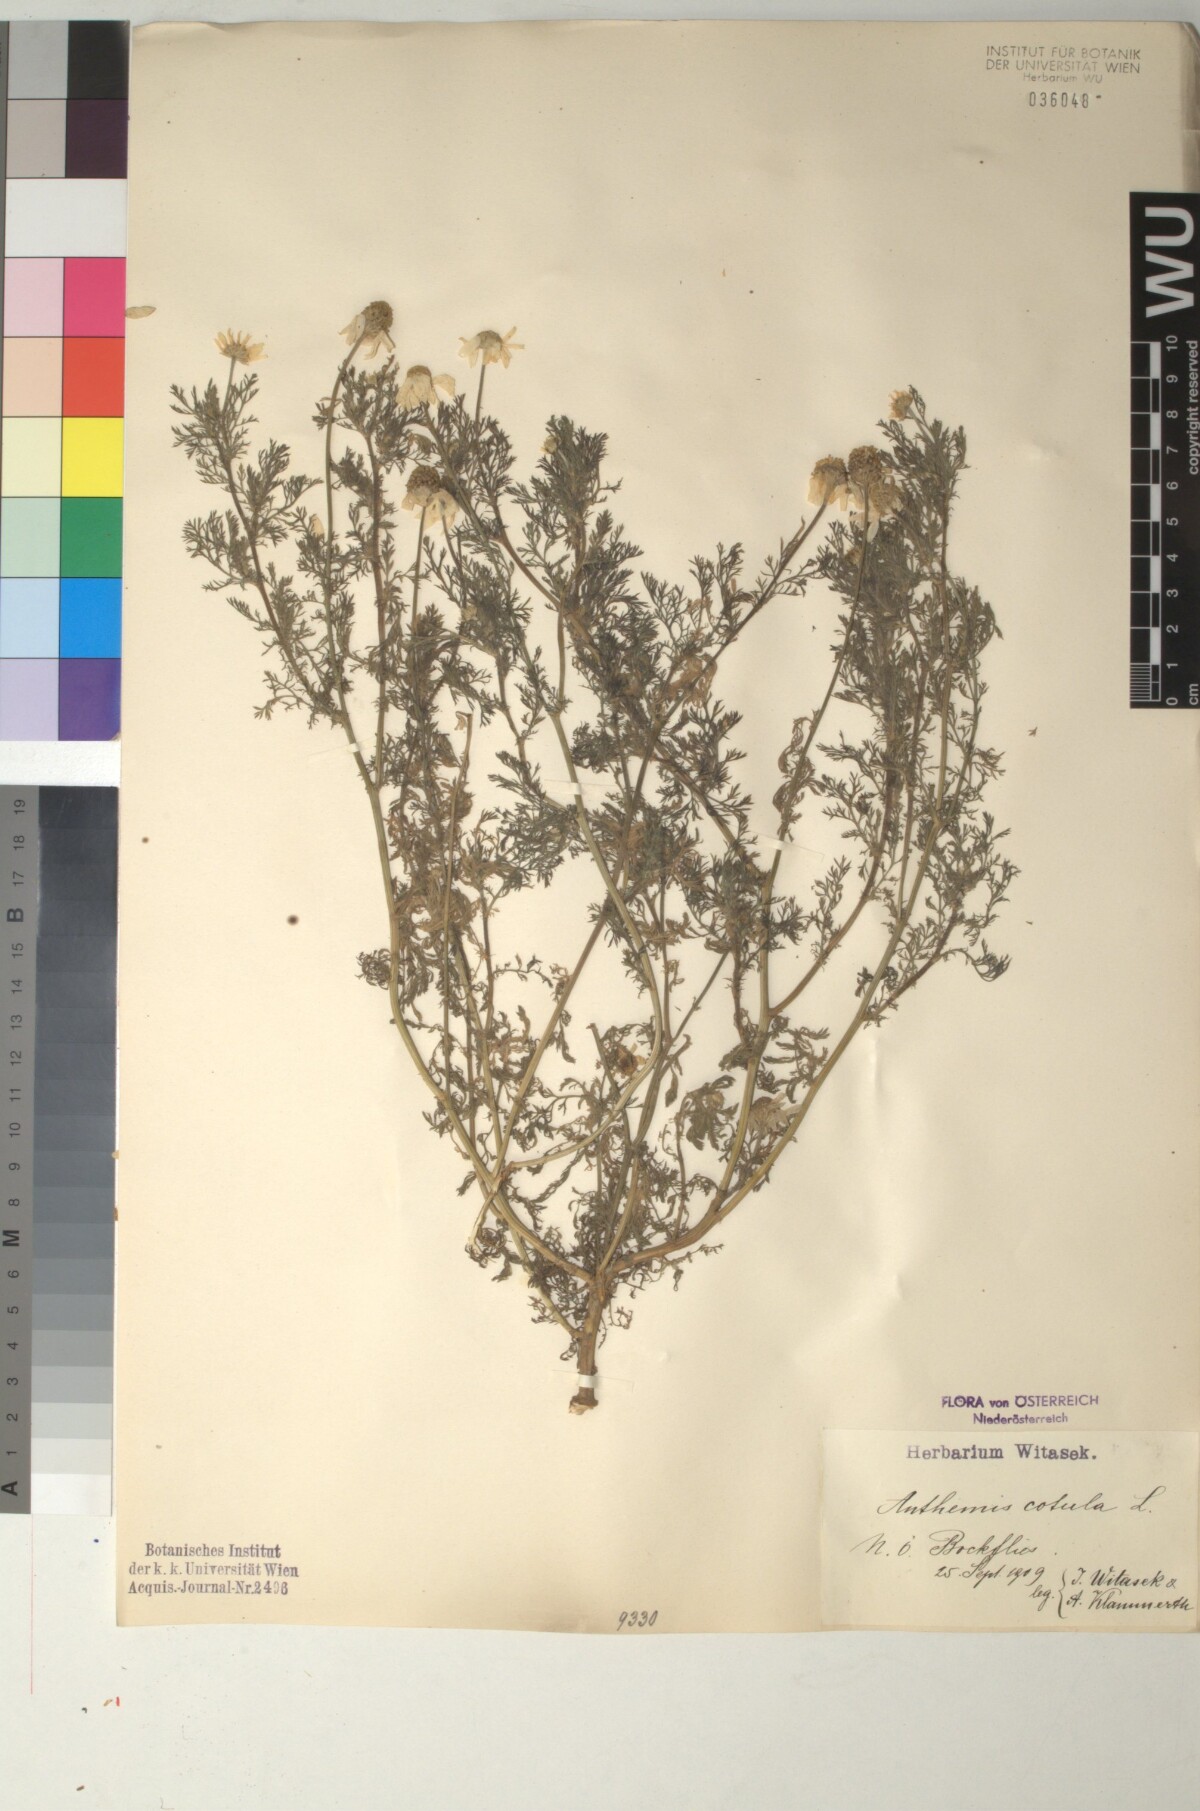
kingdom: Plantae
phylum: Tracheophyta
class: Magnoliopsida
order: Asterales
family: Asteraceae
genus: Anthemis
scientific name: Anthemis cotula
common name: Stinking chamomile
